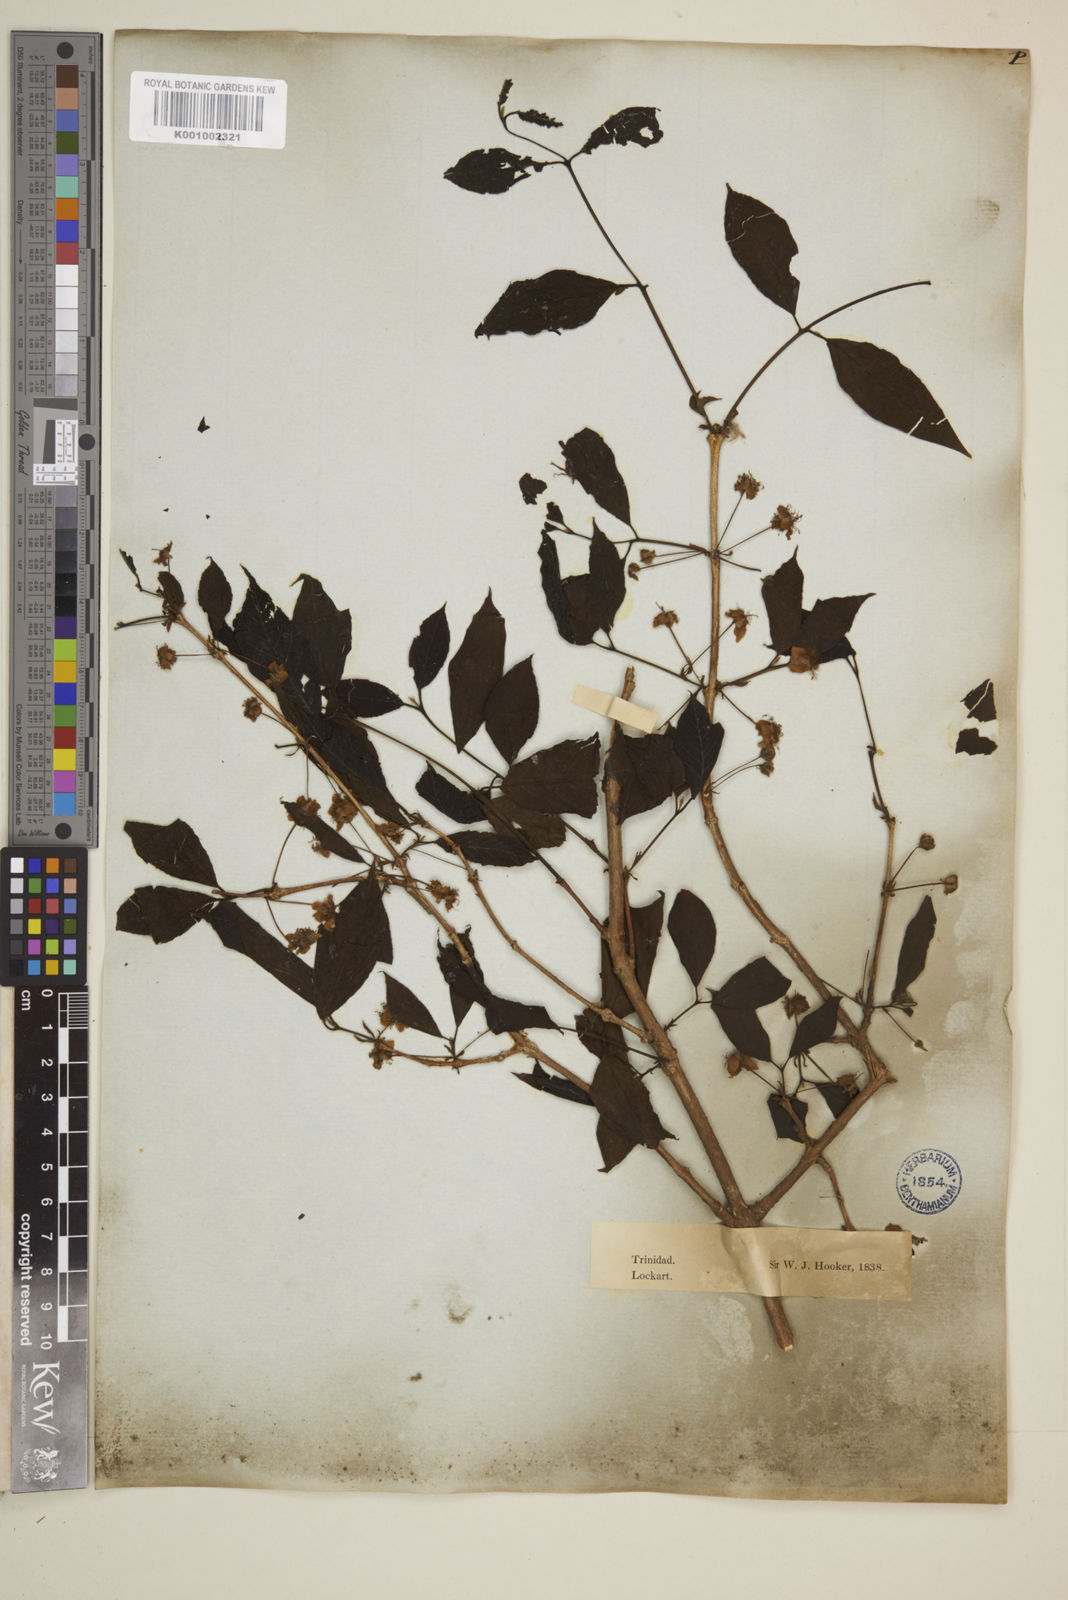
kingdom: Plantae
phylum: Tracheophyta
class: Magnoliopsida
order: Myrtales
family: Myrtaceae
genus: Eugenia
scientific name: Eugenia uniflora
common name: Surinam cherry
